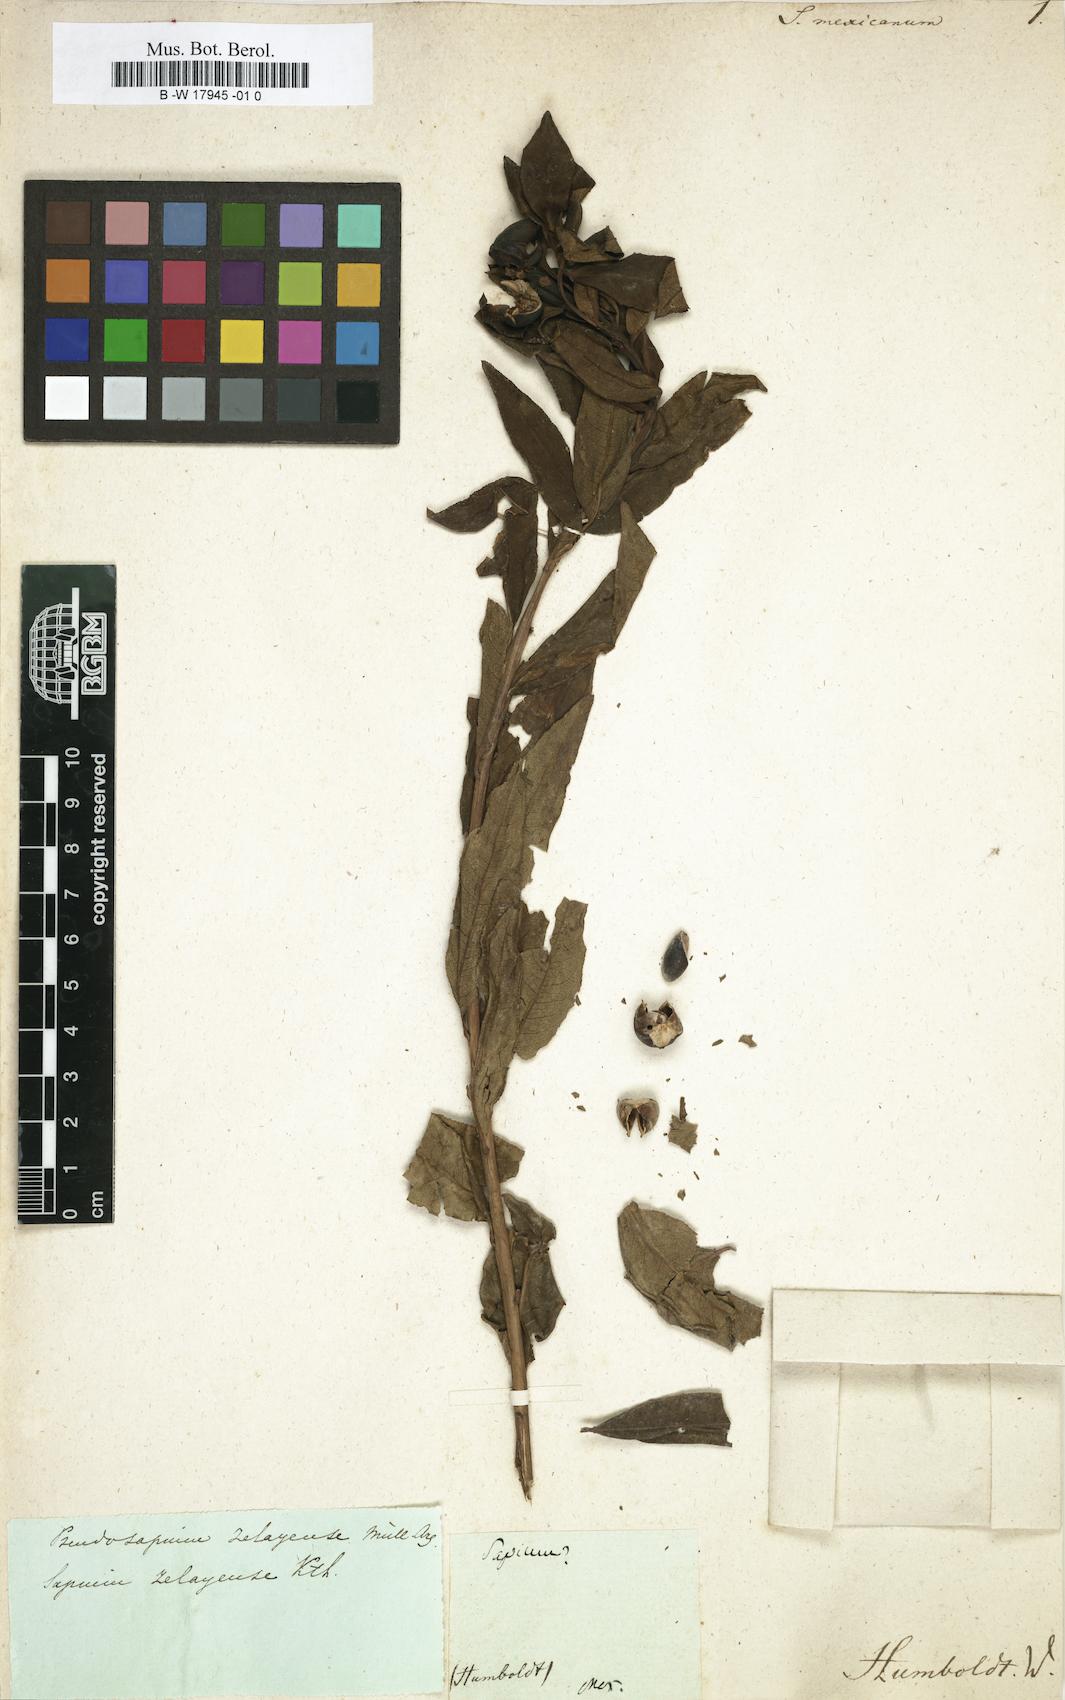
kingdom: Plantae
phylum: Tracheophyta
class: Magnoliopsida
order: Malpighiales
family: Euphorbiaceae
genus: Sapium
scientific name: Sapium macrocarpum
